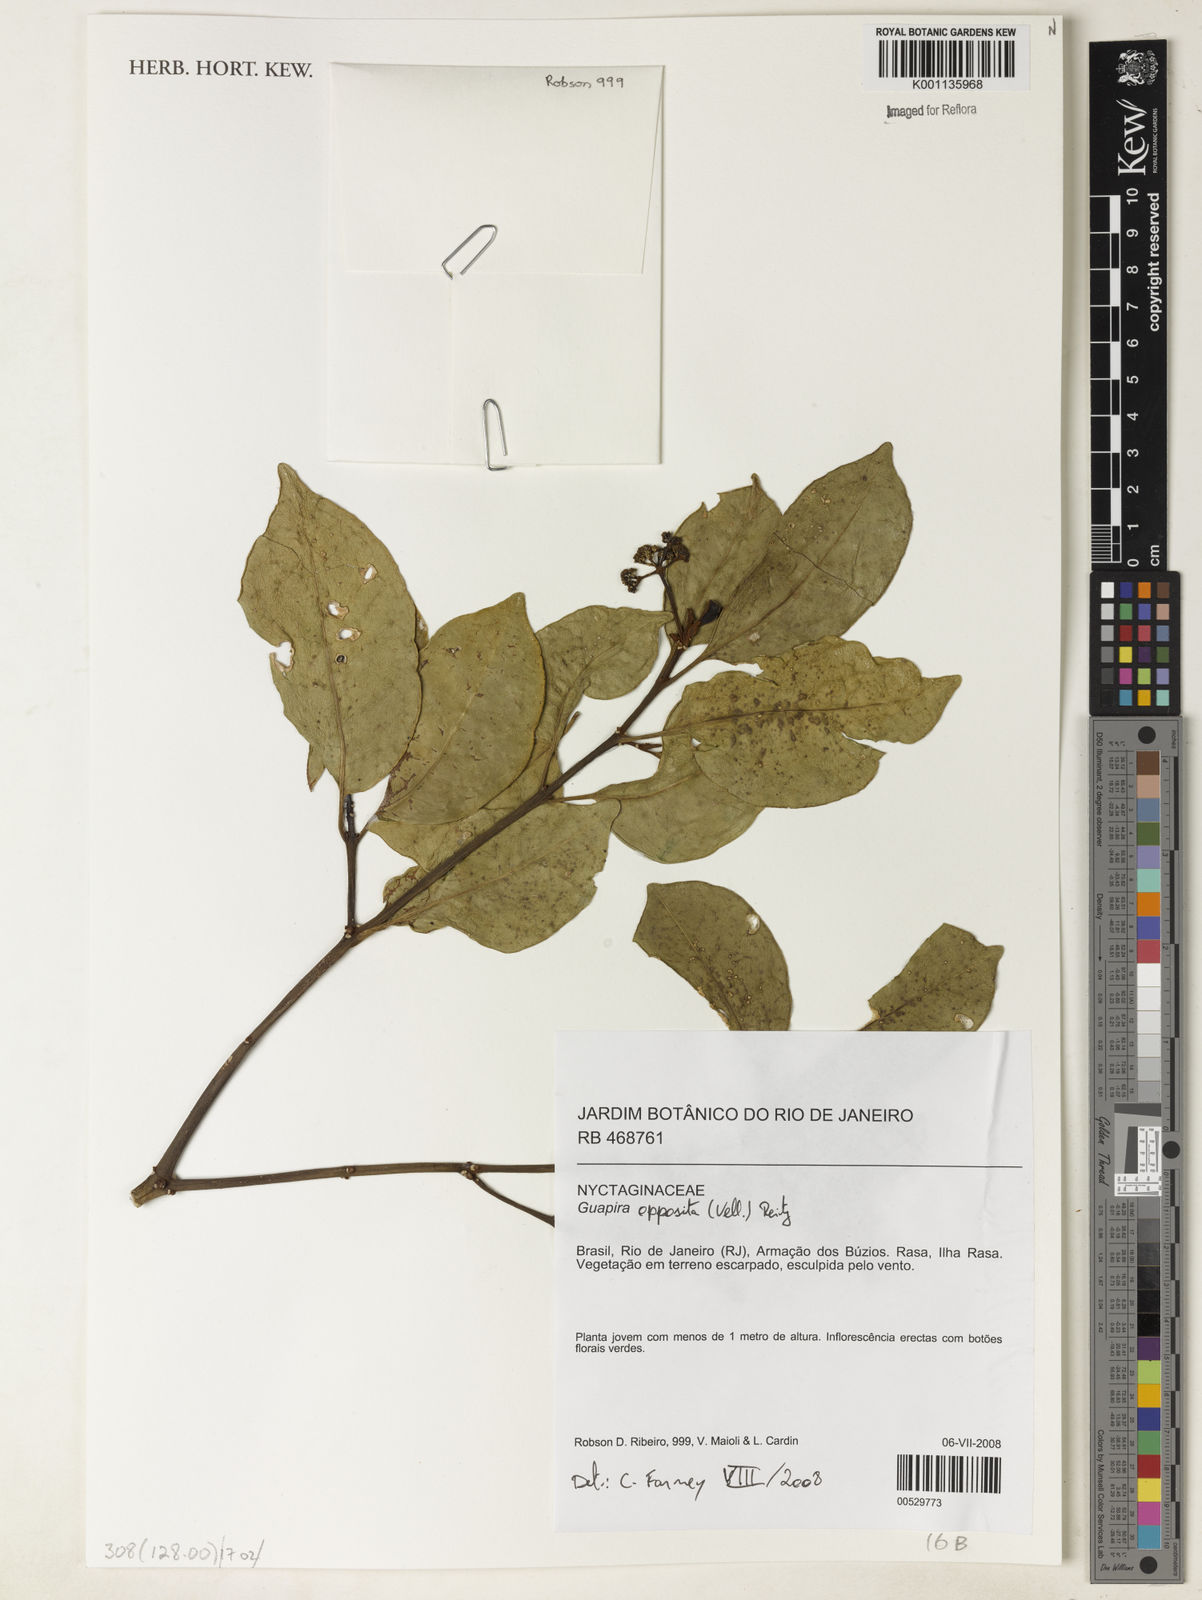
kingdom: Plantae
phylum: Tracheophyta
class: Magnoliopsida
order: Caryophyllales
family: Nyctaginaceae
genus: Guapira
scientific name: Guapira opposita
